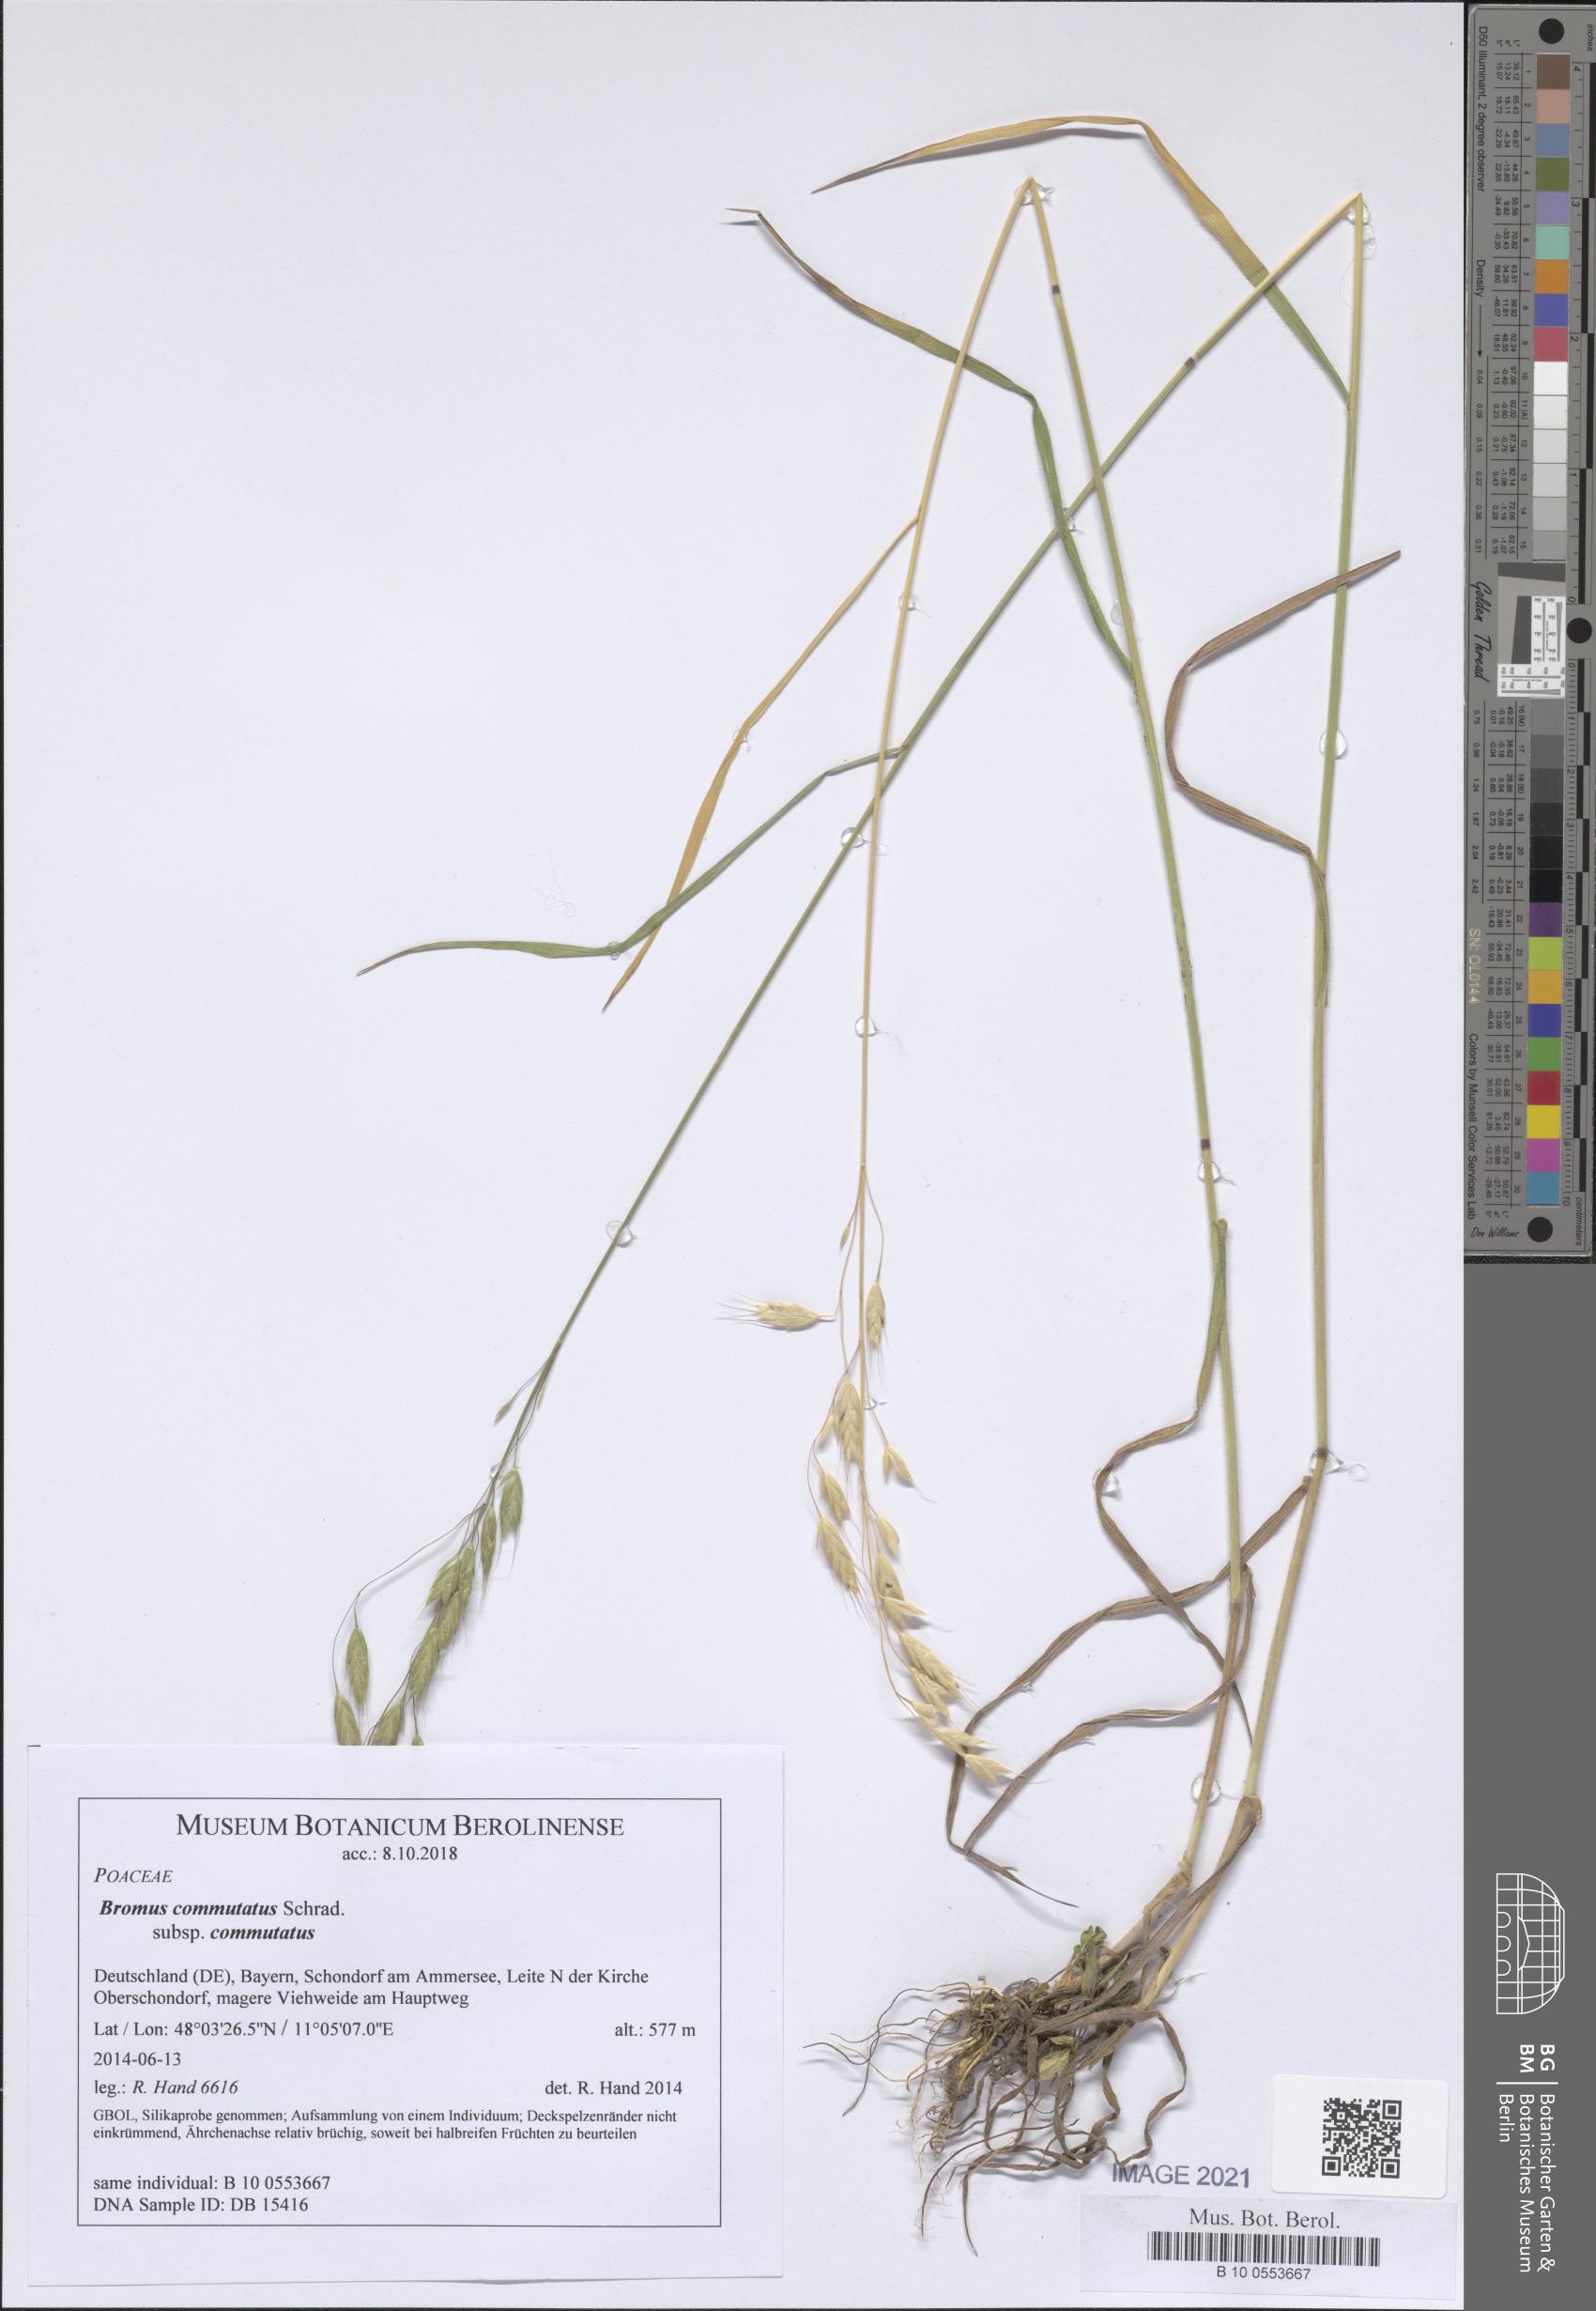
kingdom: Plantae
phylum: Tracheophyta
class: Liliopsida
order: Poales
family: Poaceae
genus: Bromus
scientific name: Bromus commutatus
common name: Meadow brome
